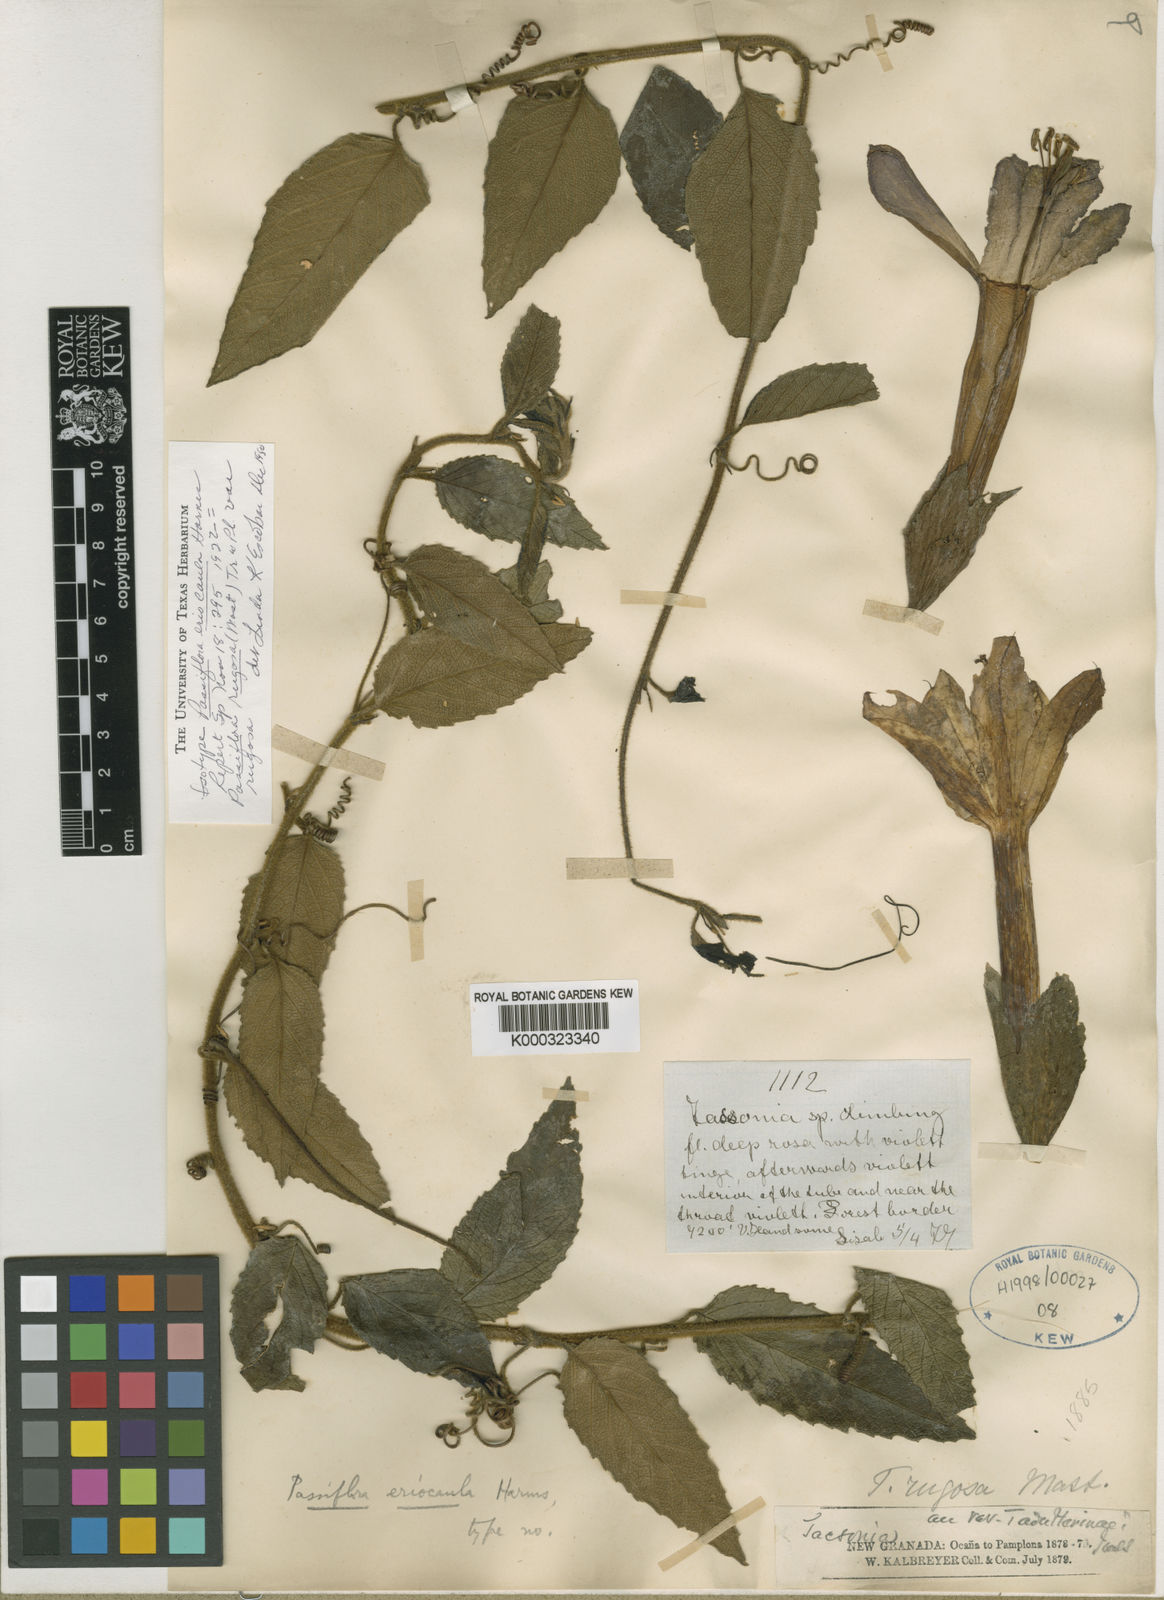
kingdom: Plantae
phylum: Tracheophyta
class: Magnoliopsida
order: Malpighiales
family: Passifloraceae
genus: Passiflora
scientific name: Passiflora rugosa
